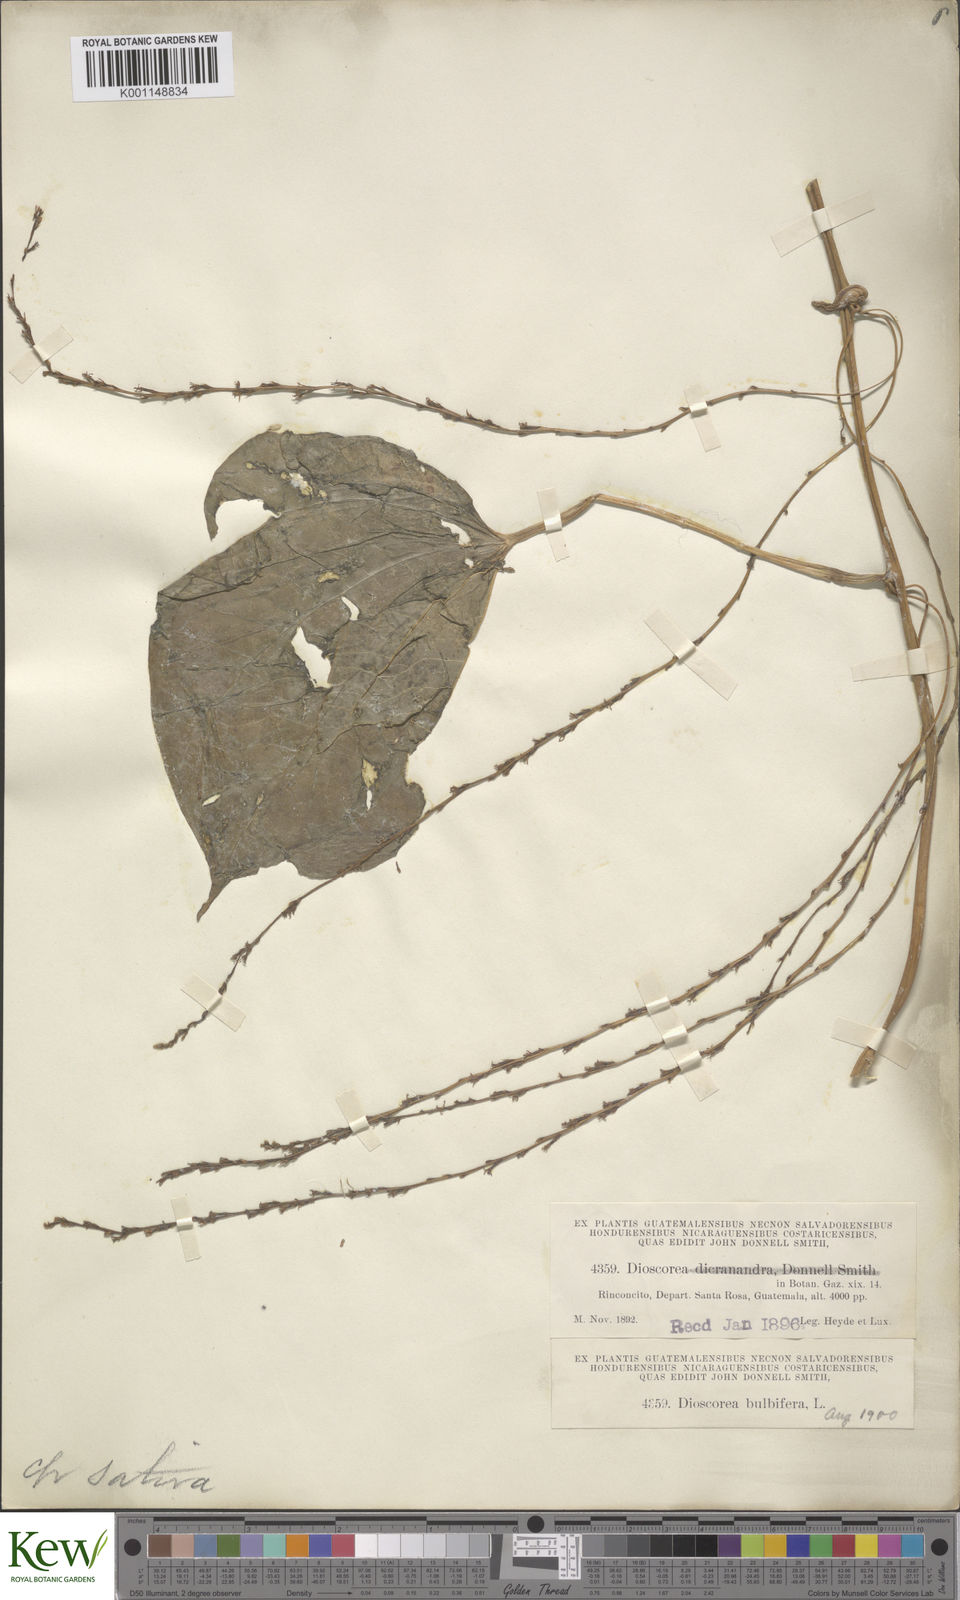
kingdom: Plantae
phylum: Tracheophyta
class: Liliopsida
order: Dioscoreales
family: Dioscoreaceae
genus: Dioscorea
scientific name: Dioscorea bulbifera
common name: Air yam
